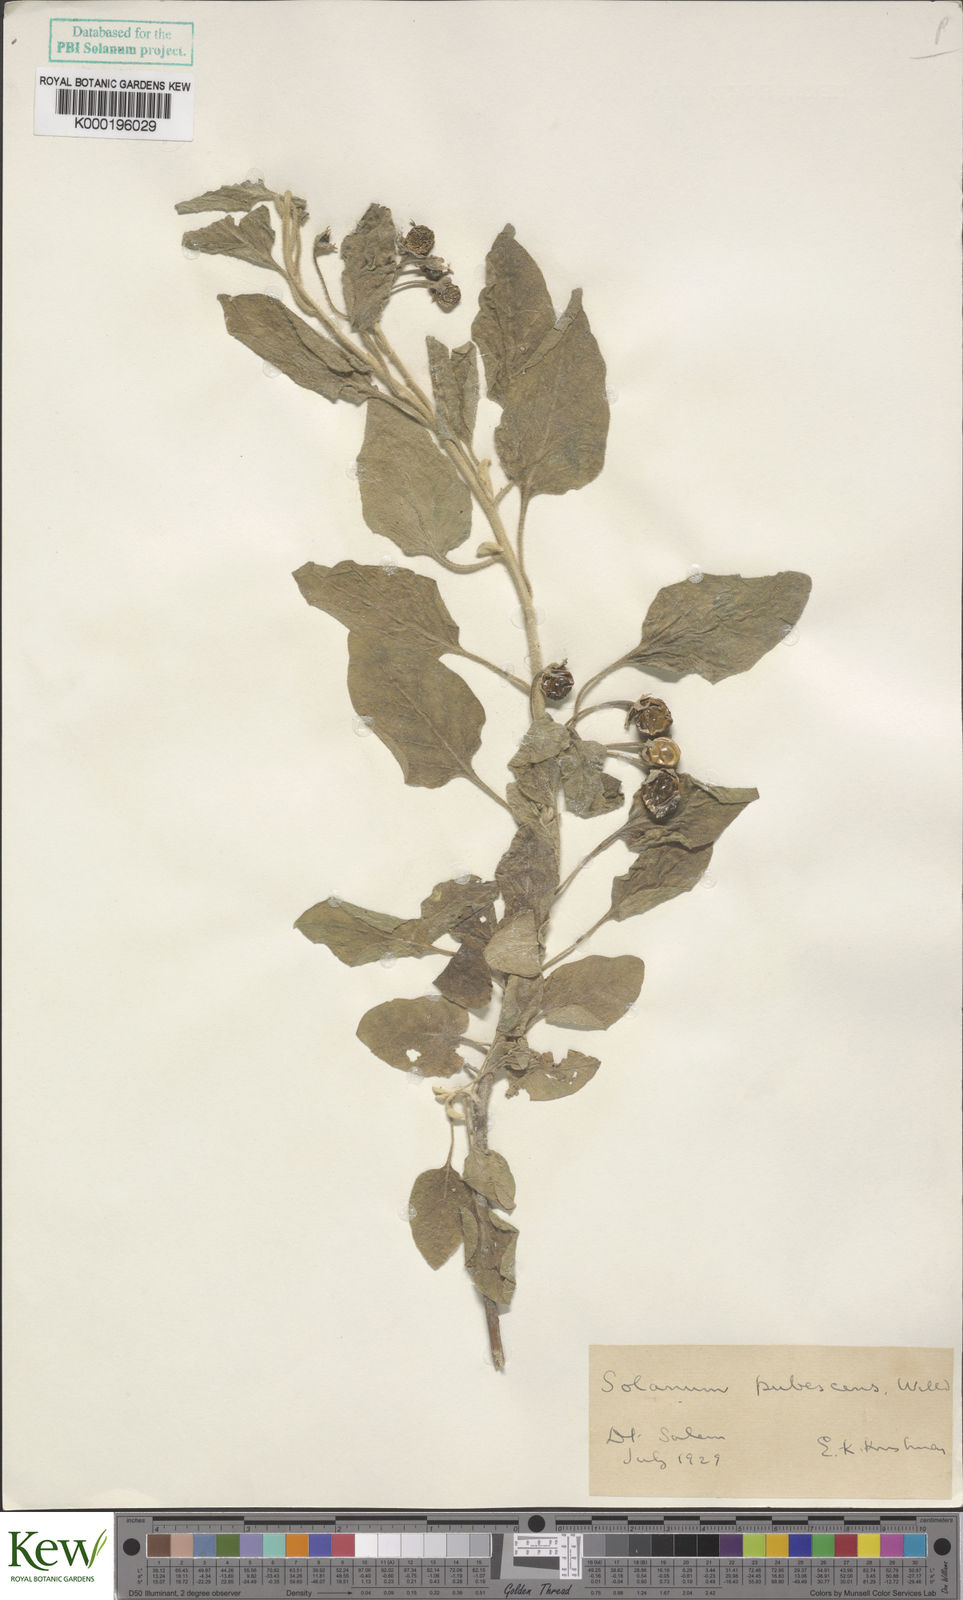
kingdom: Plantae
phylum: Tracheophyta
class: Magnoliopsida
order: Solanales
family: Solanaceae
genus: Solanum
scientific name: Solanum pubescens
